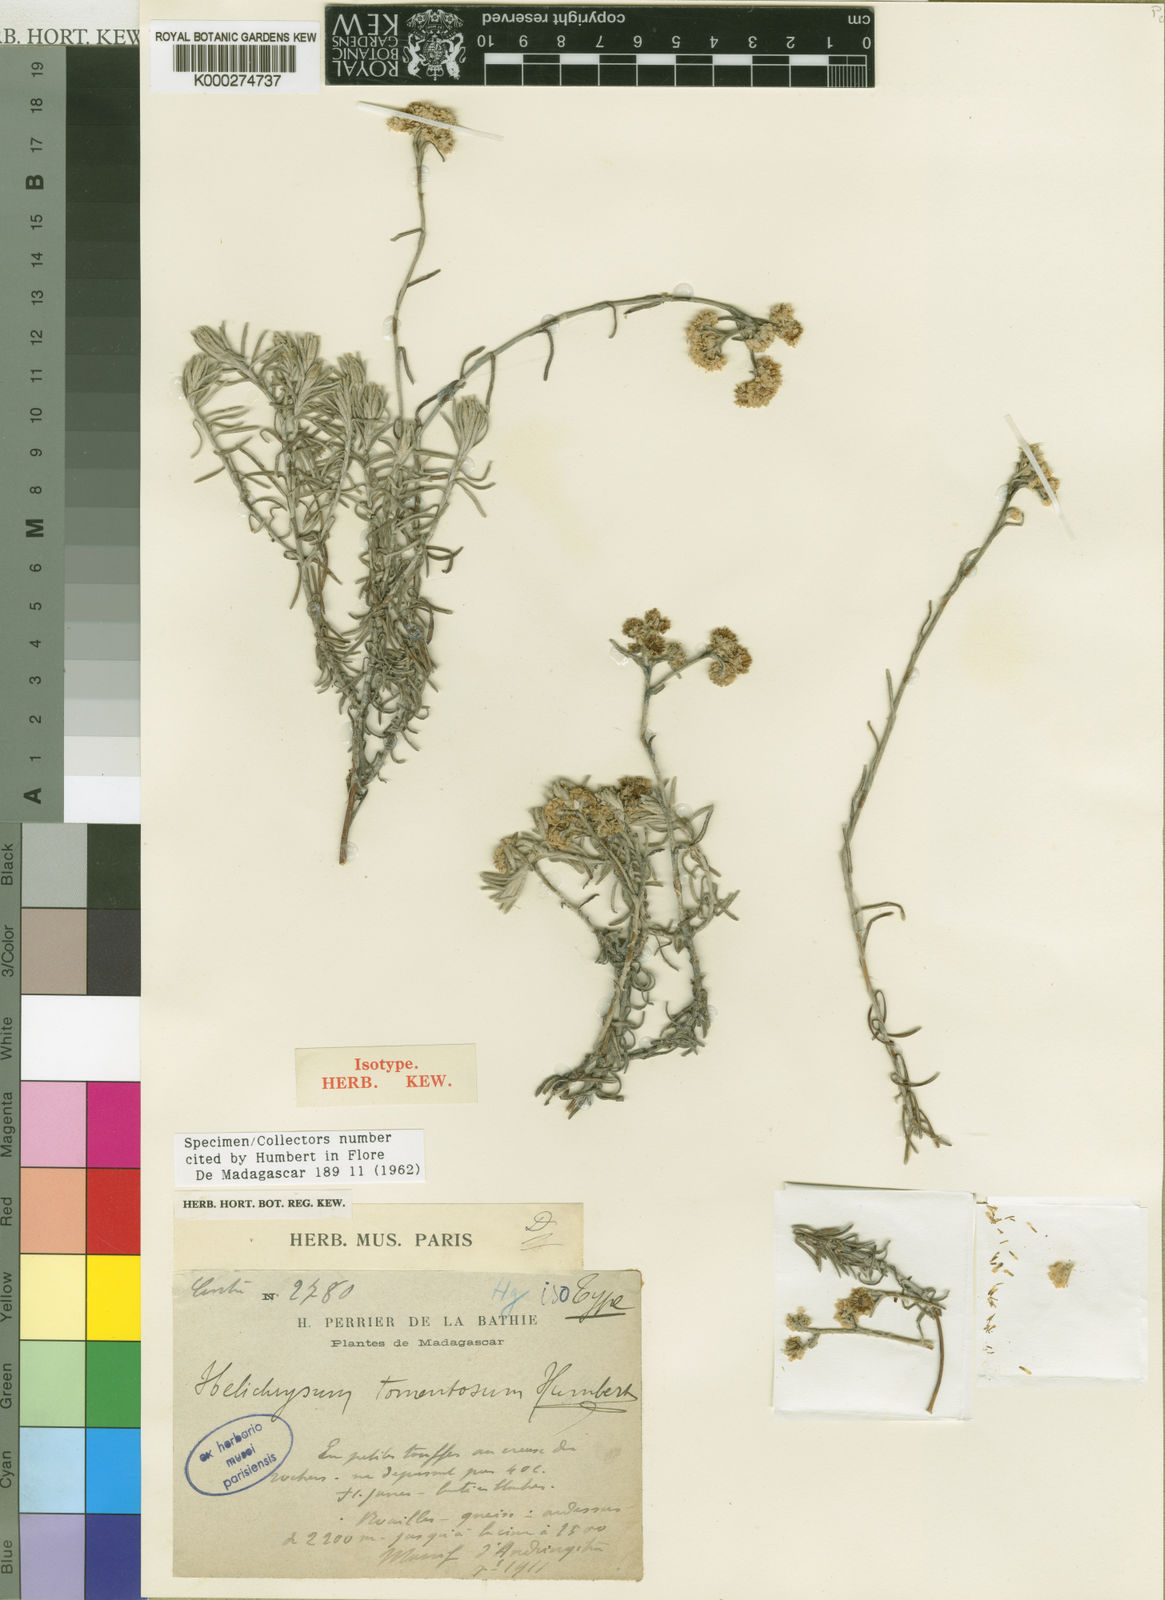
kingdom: Plantae
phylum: Tracheophyta
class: Magnoliopsida
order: Asterales
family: Asteraceae
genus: Helichrysum
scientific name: Helichrysum tomentosum
